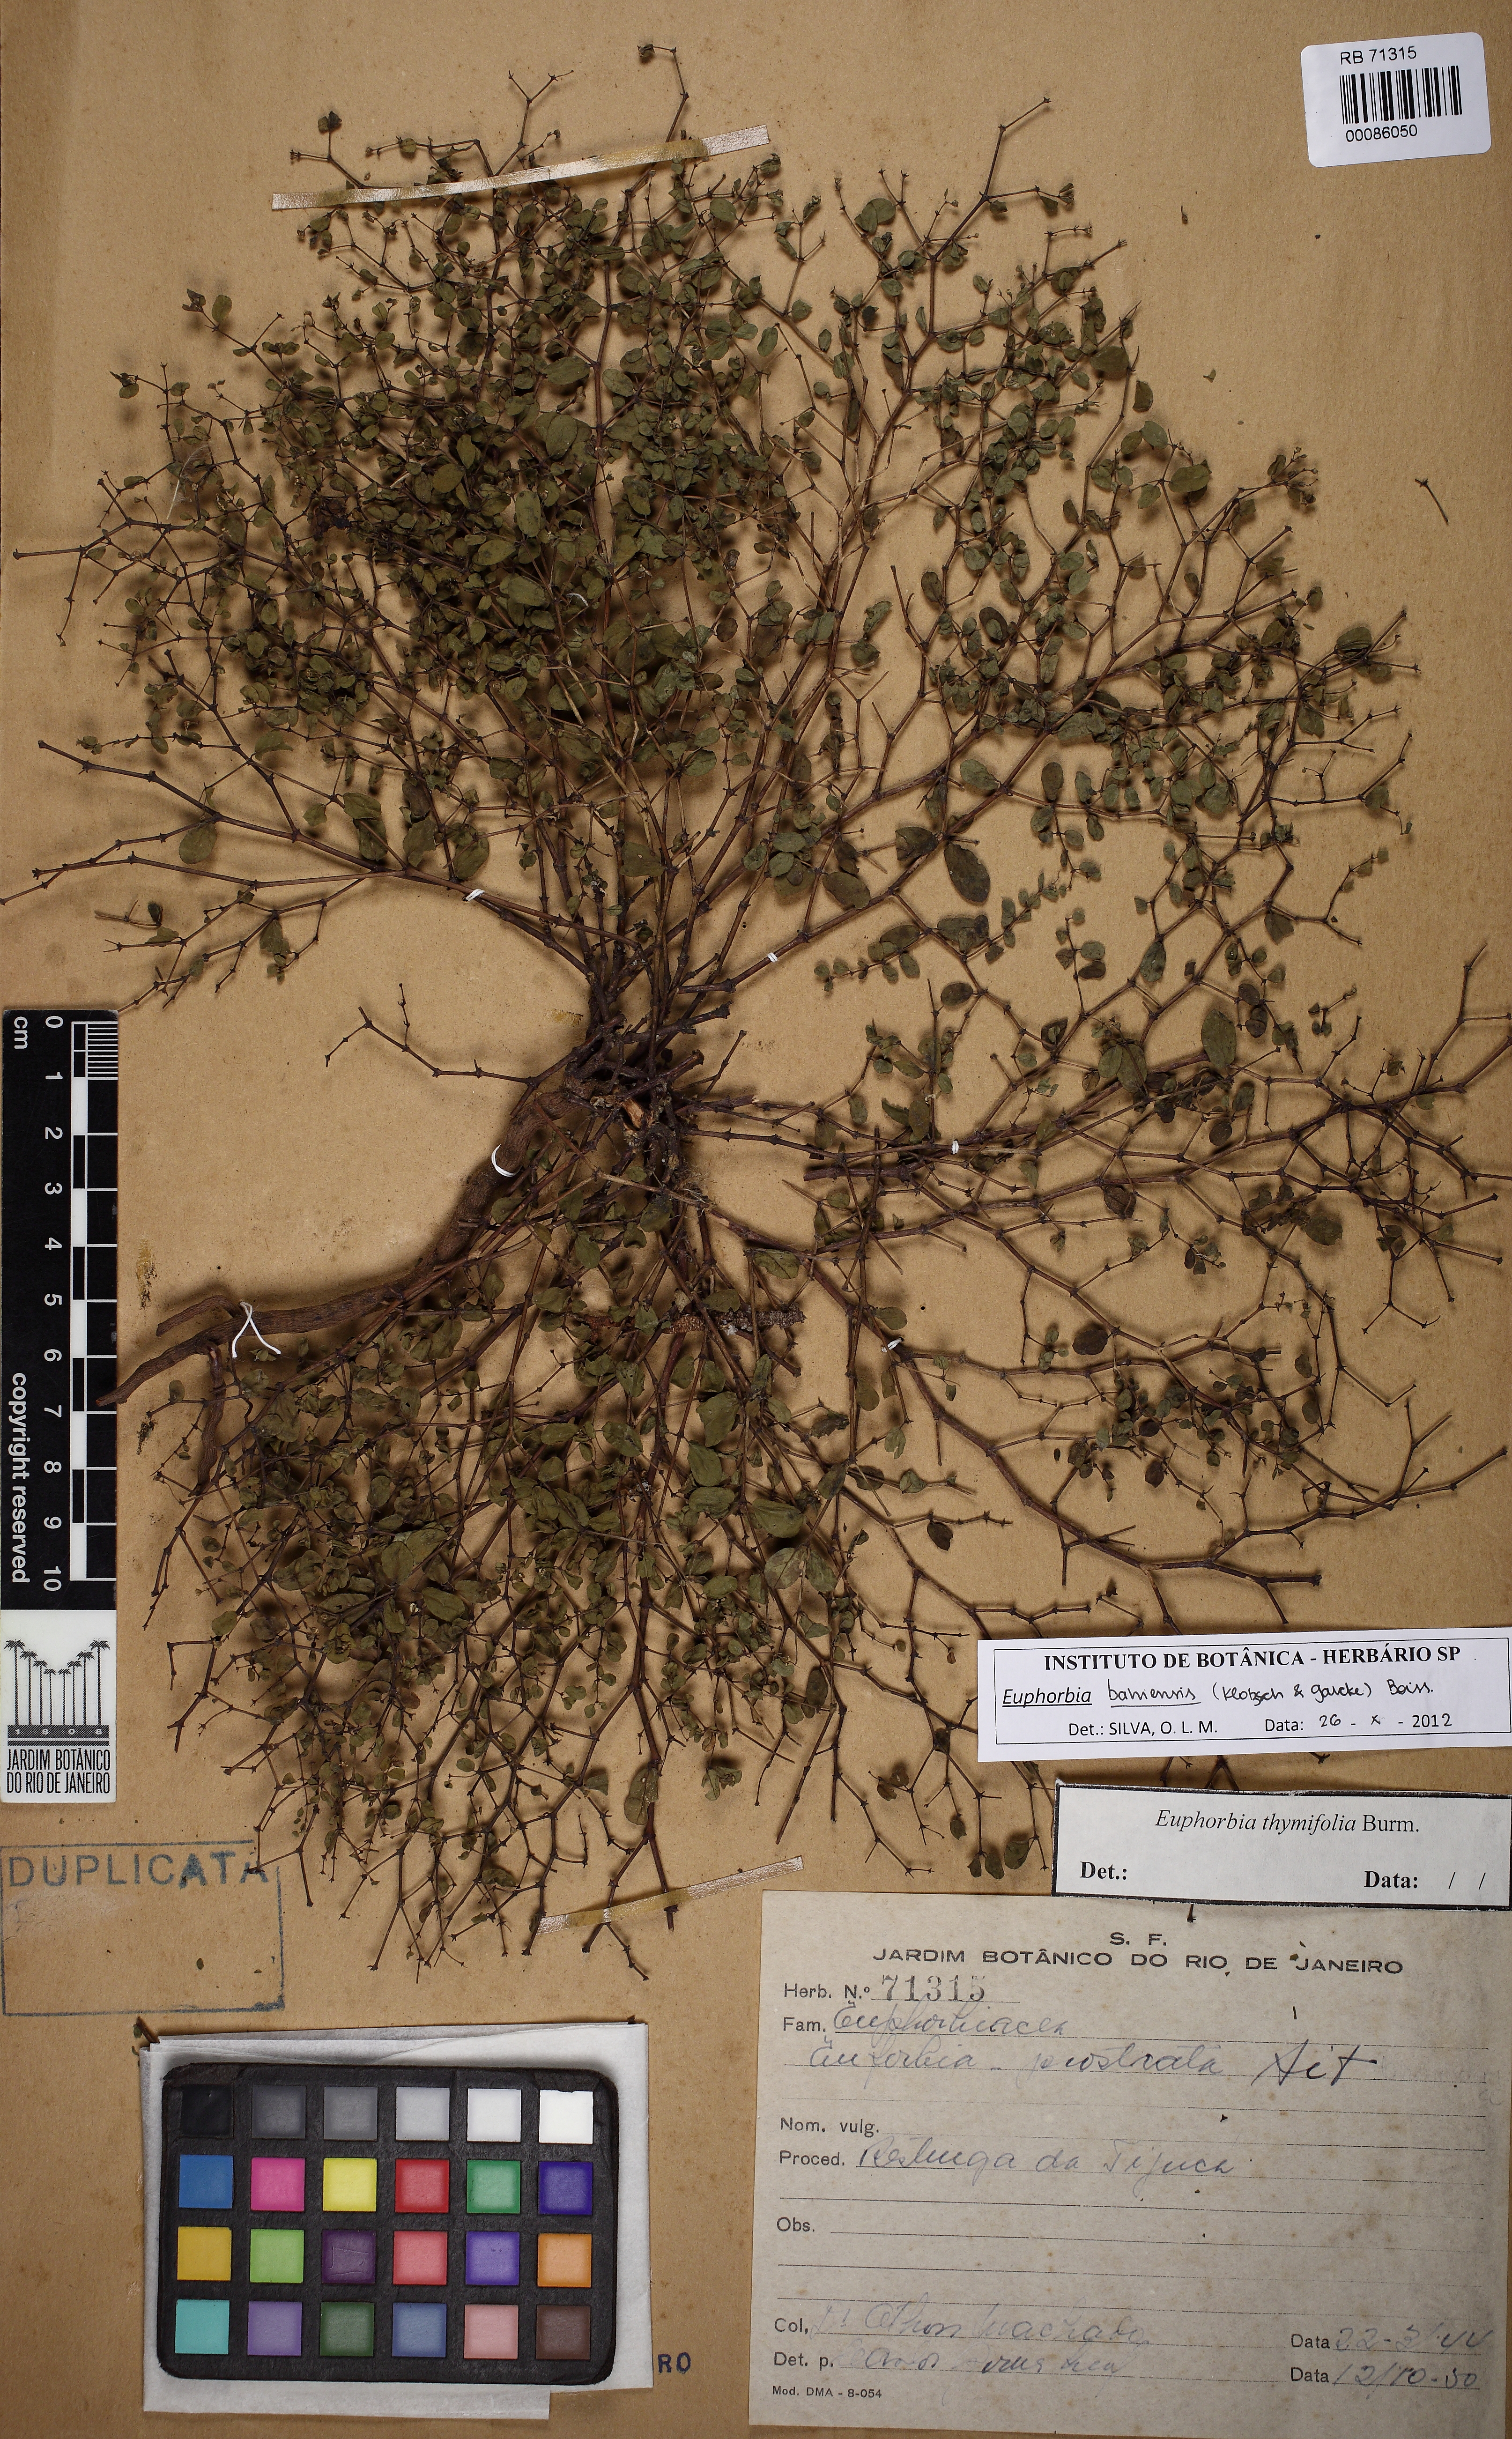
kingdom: Plantae
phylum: Tracheophyta
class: Magnoliopsida
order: Malpighiales
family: Euphorbiaceae
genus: Euphorbia
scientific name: Euphorbia bahiensis
